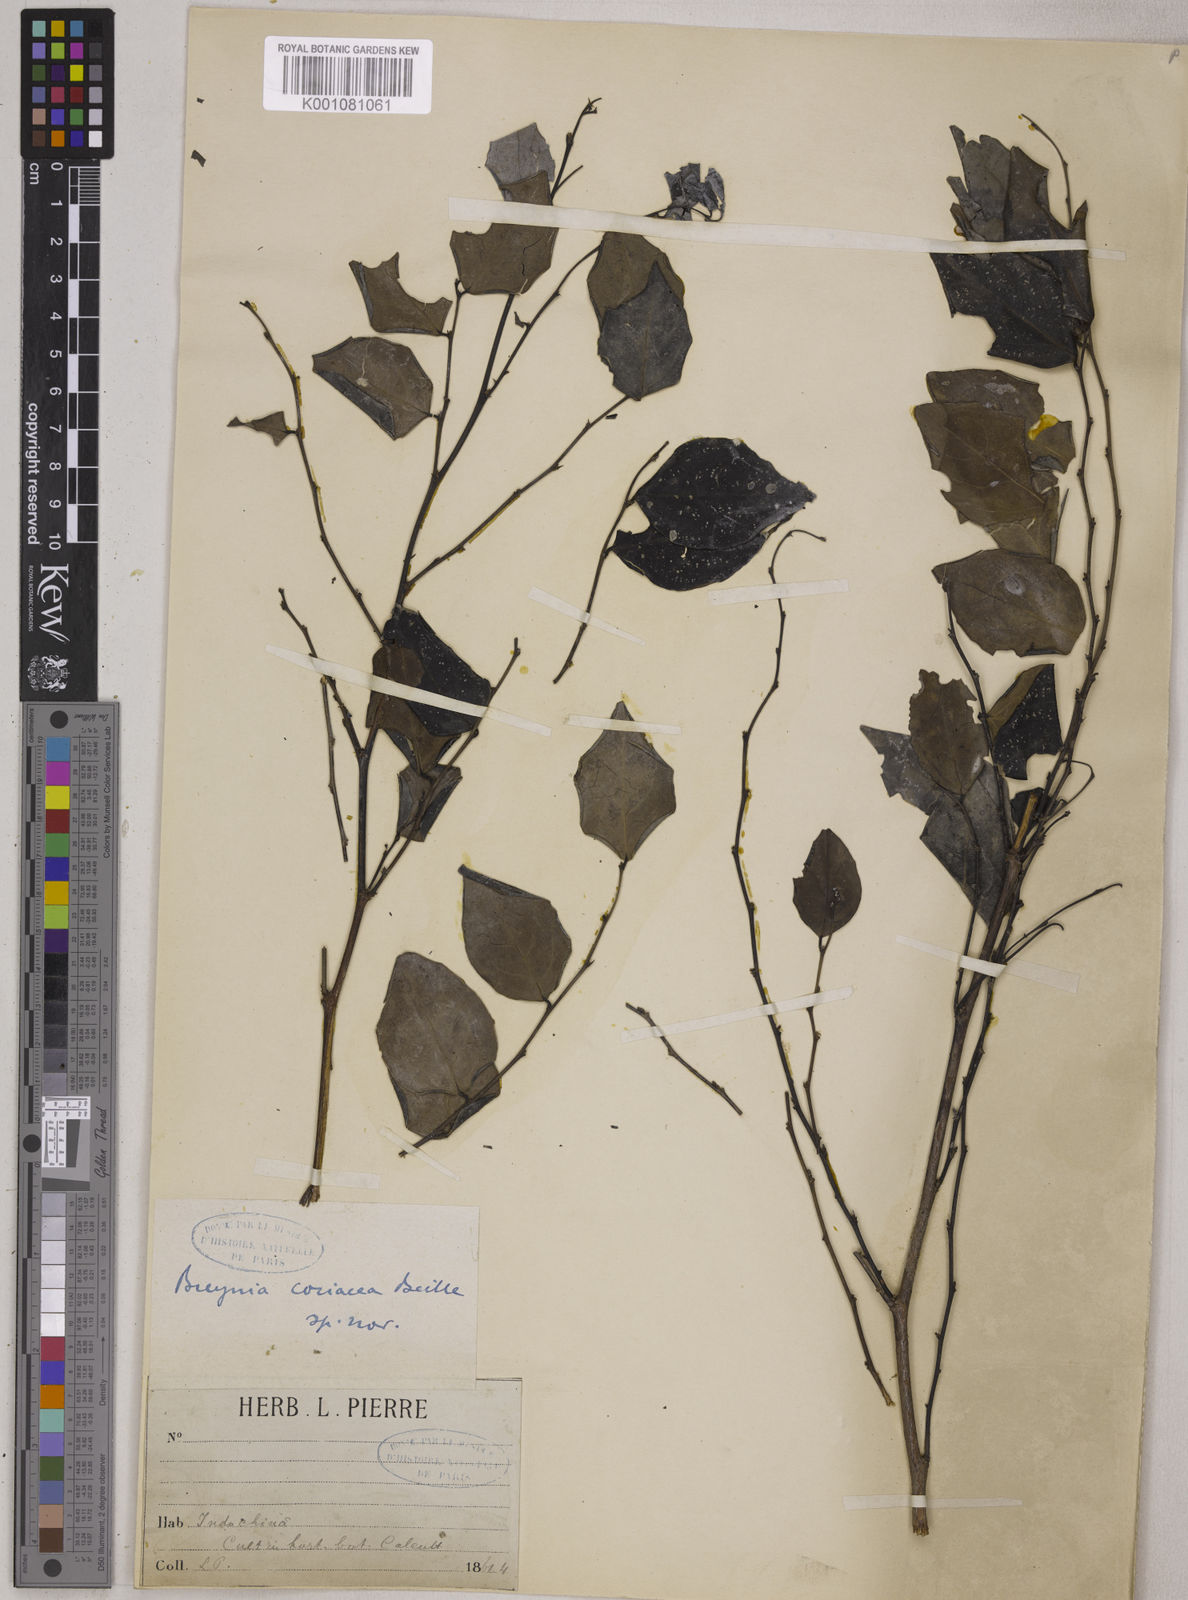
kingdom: Plantae
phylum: Tracheophyta
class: Magnoliopsida
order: Malpighiales
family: Phyllanthaceae
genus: Breynia
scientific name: Breynia coriacea
